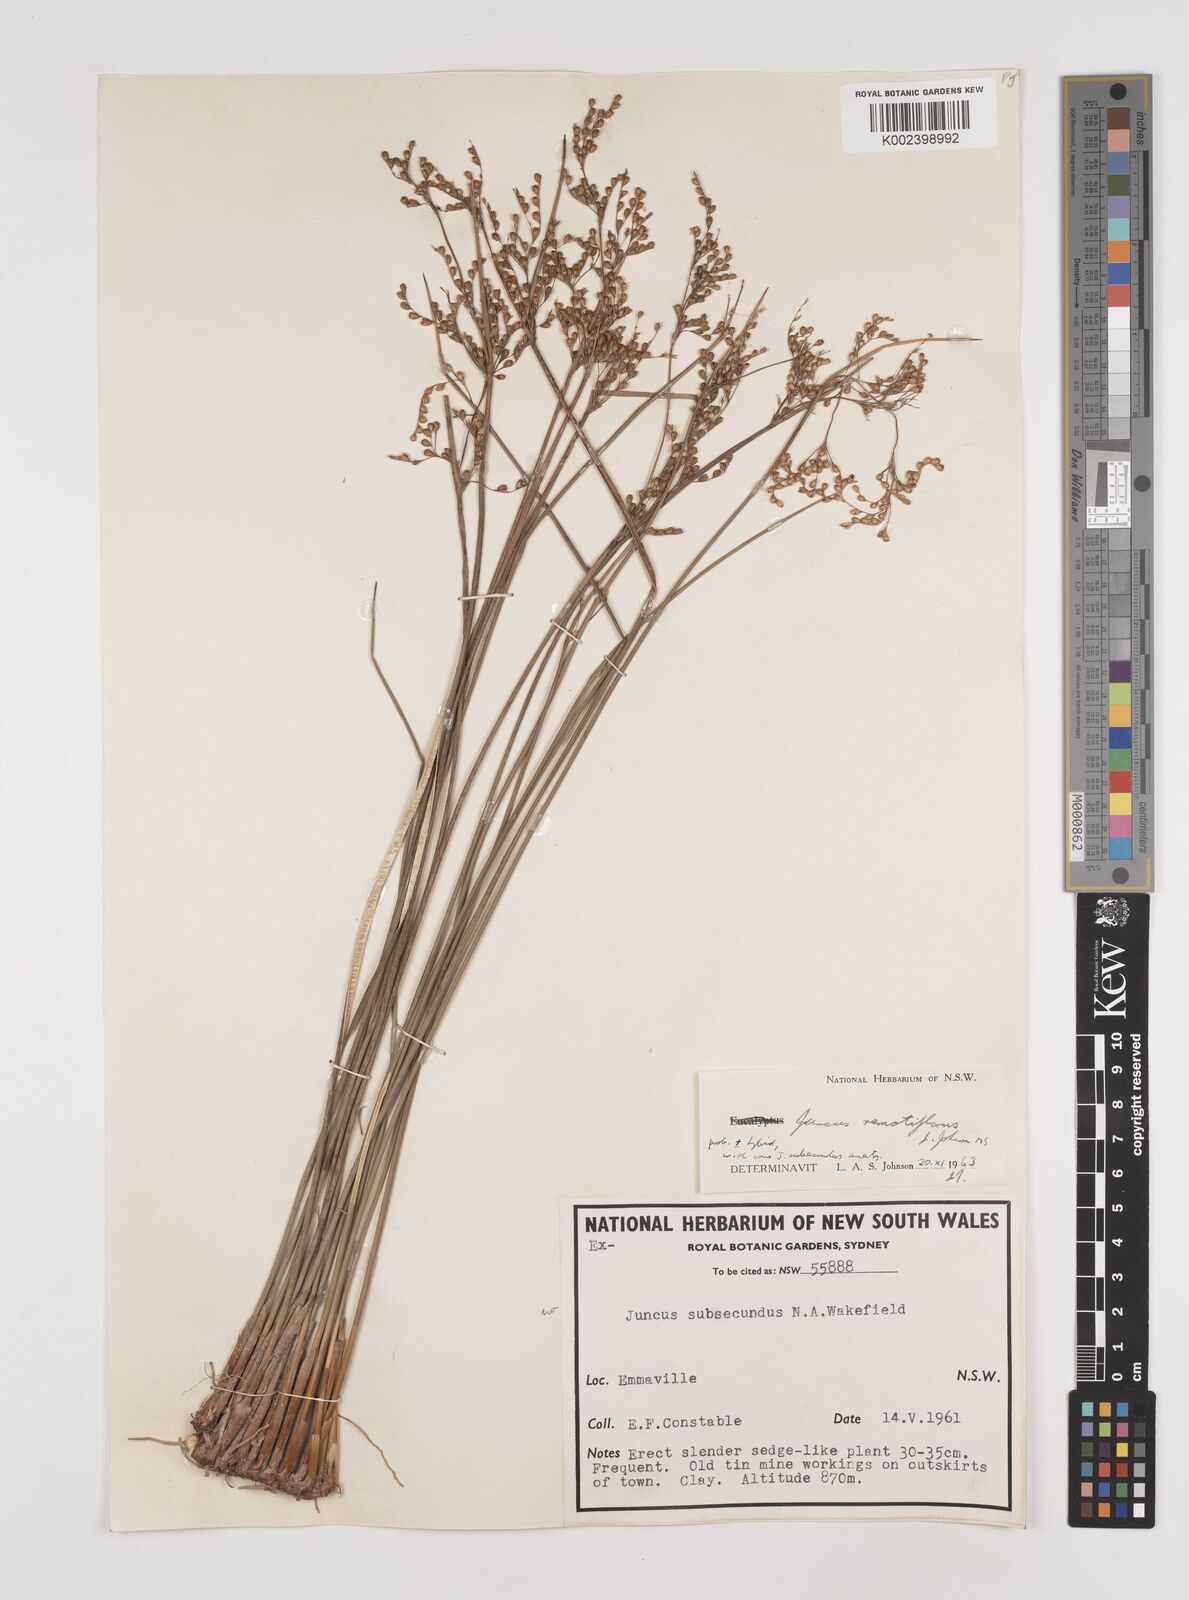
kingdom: Plantae
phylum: Tracheophyta
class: Liliopsida
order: Poales
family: Juncaceae
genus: Juncus
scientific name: Juncus remotiflorus
